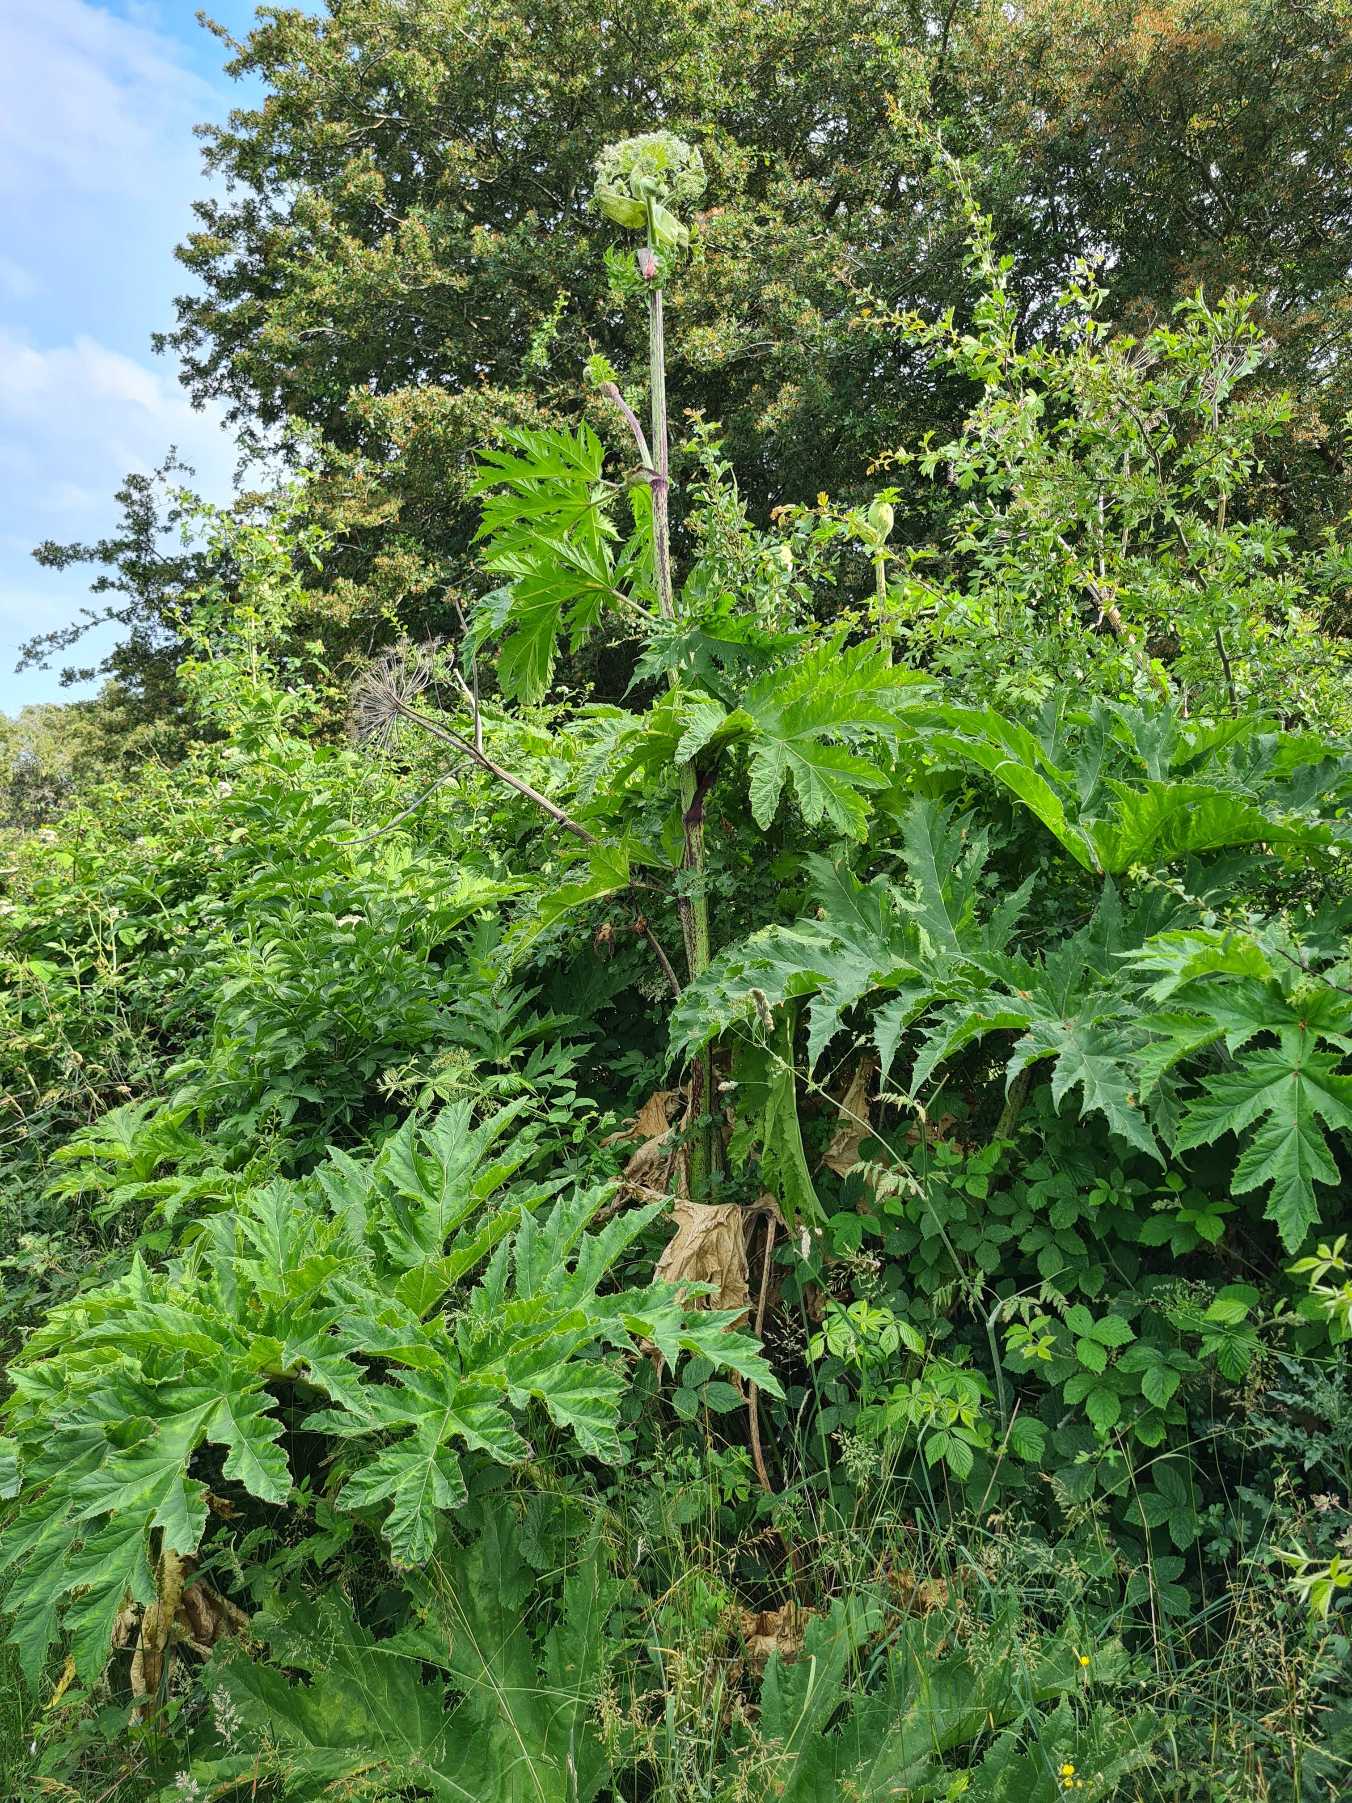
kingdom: Plantae
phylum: Tracheophyta
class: Magnoliopsida
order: Apiales
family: Apiaceae
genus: Heracleum
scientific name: Heracleum mantegazzianum
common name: Kæmpe-bjørneklo
